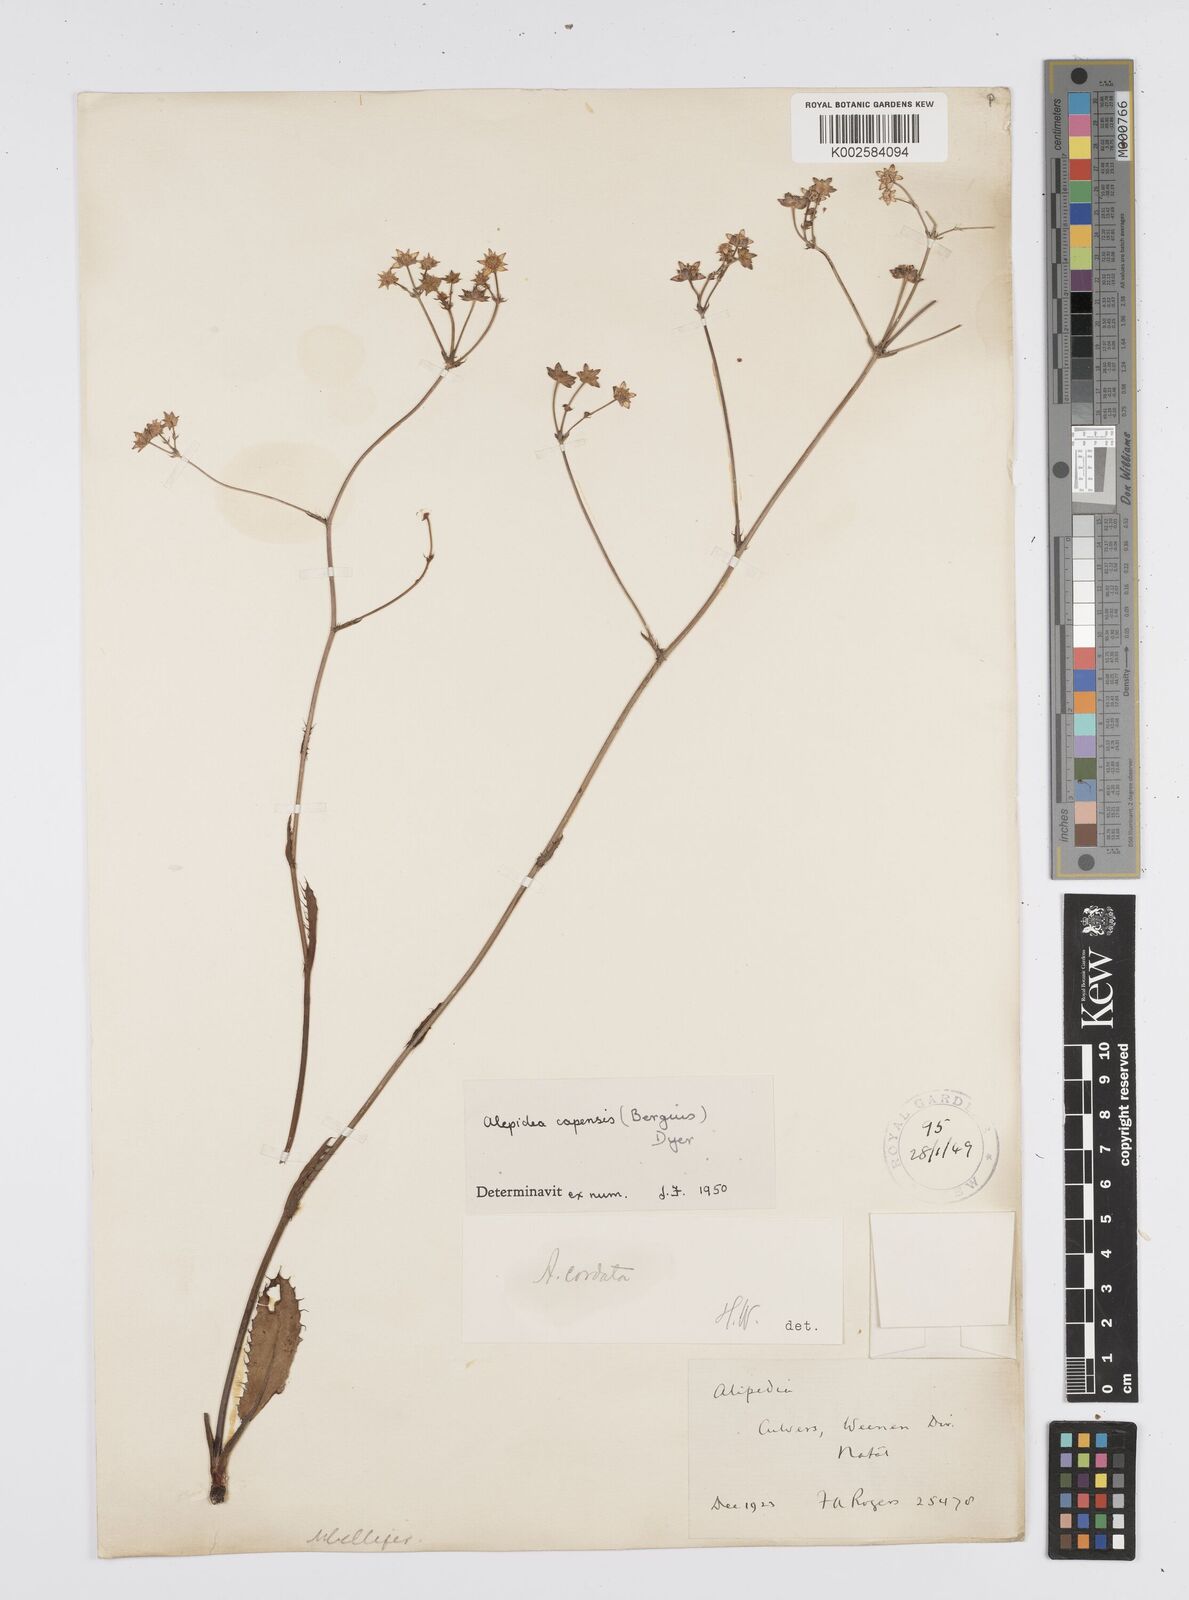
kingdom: Plantae
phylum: Tracheophyta
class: Magnoliopsida
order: Apiales
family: Apiaceae
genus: Alepidea
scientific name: Alepidea capensis
